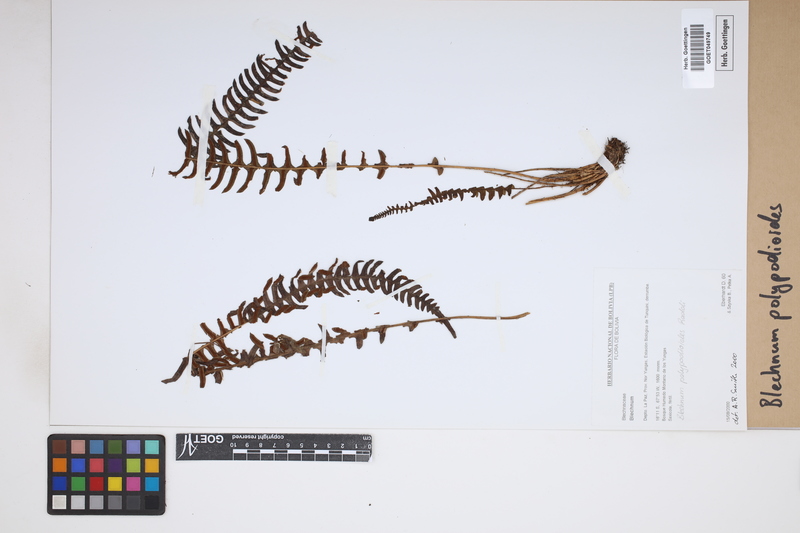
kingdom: Plantae
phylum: Tracheophyta
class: Polypodiopsida
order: Polypodiales
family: Blechnaceae
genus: Blechnum
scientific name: Blechnum polypodioides
